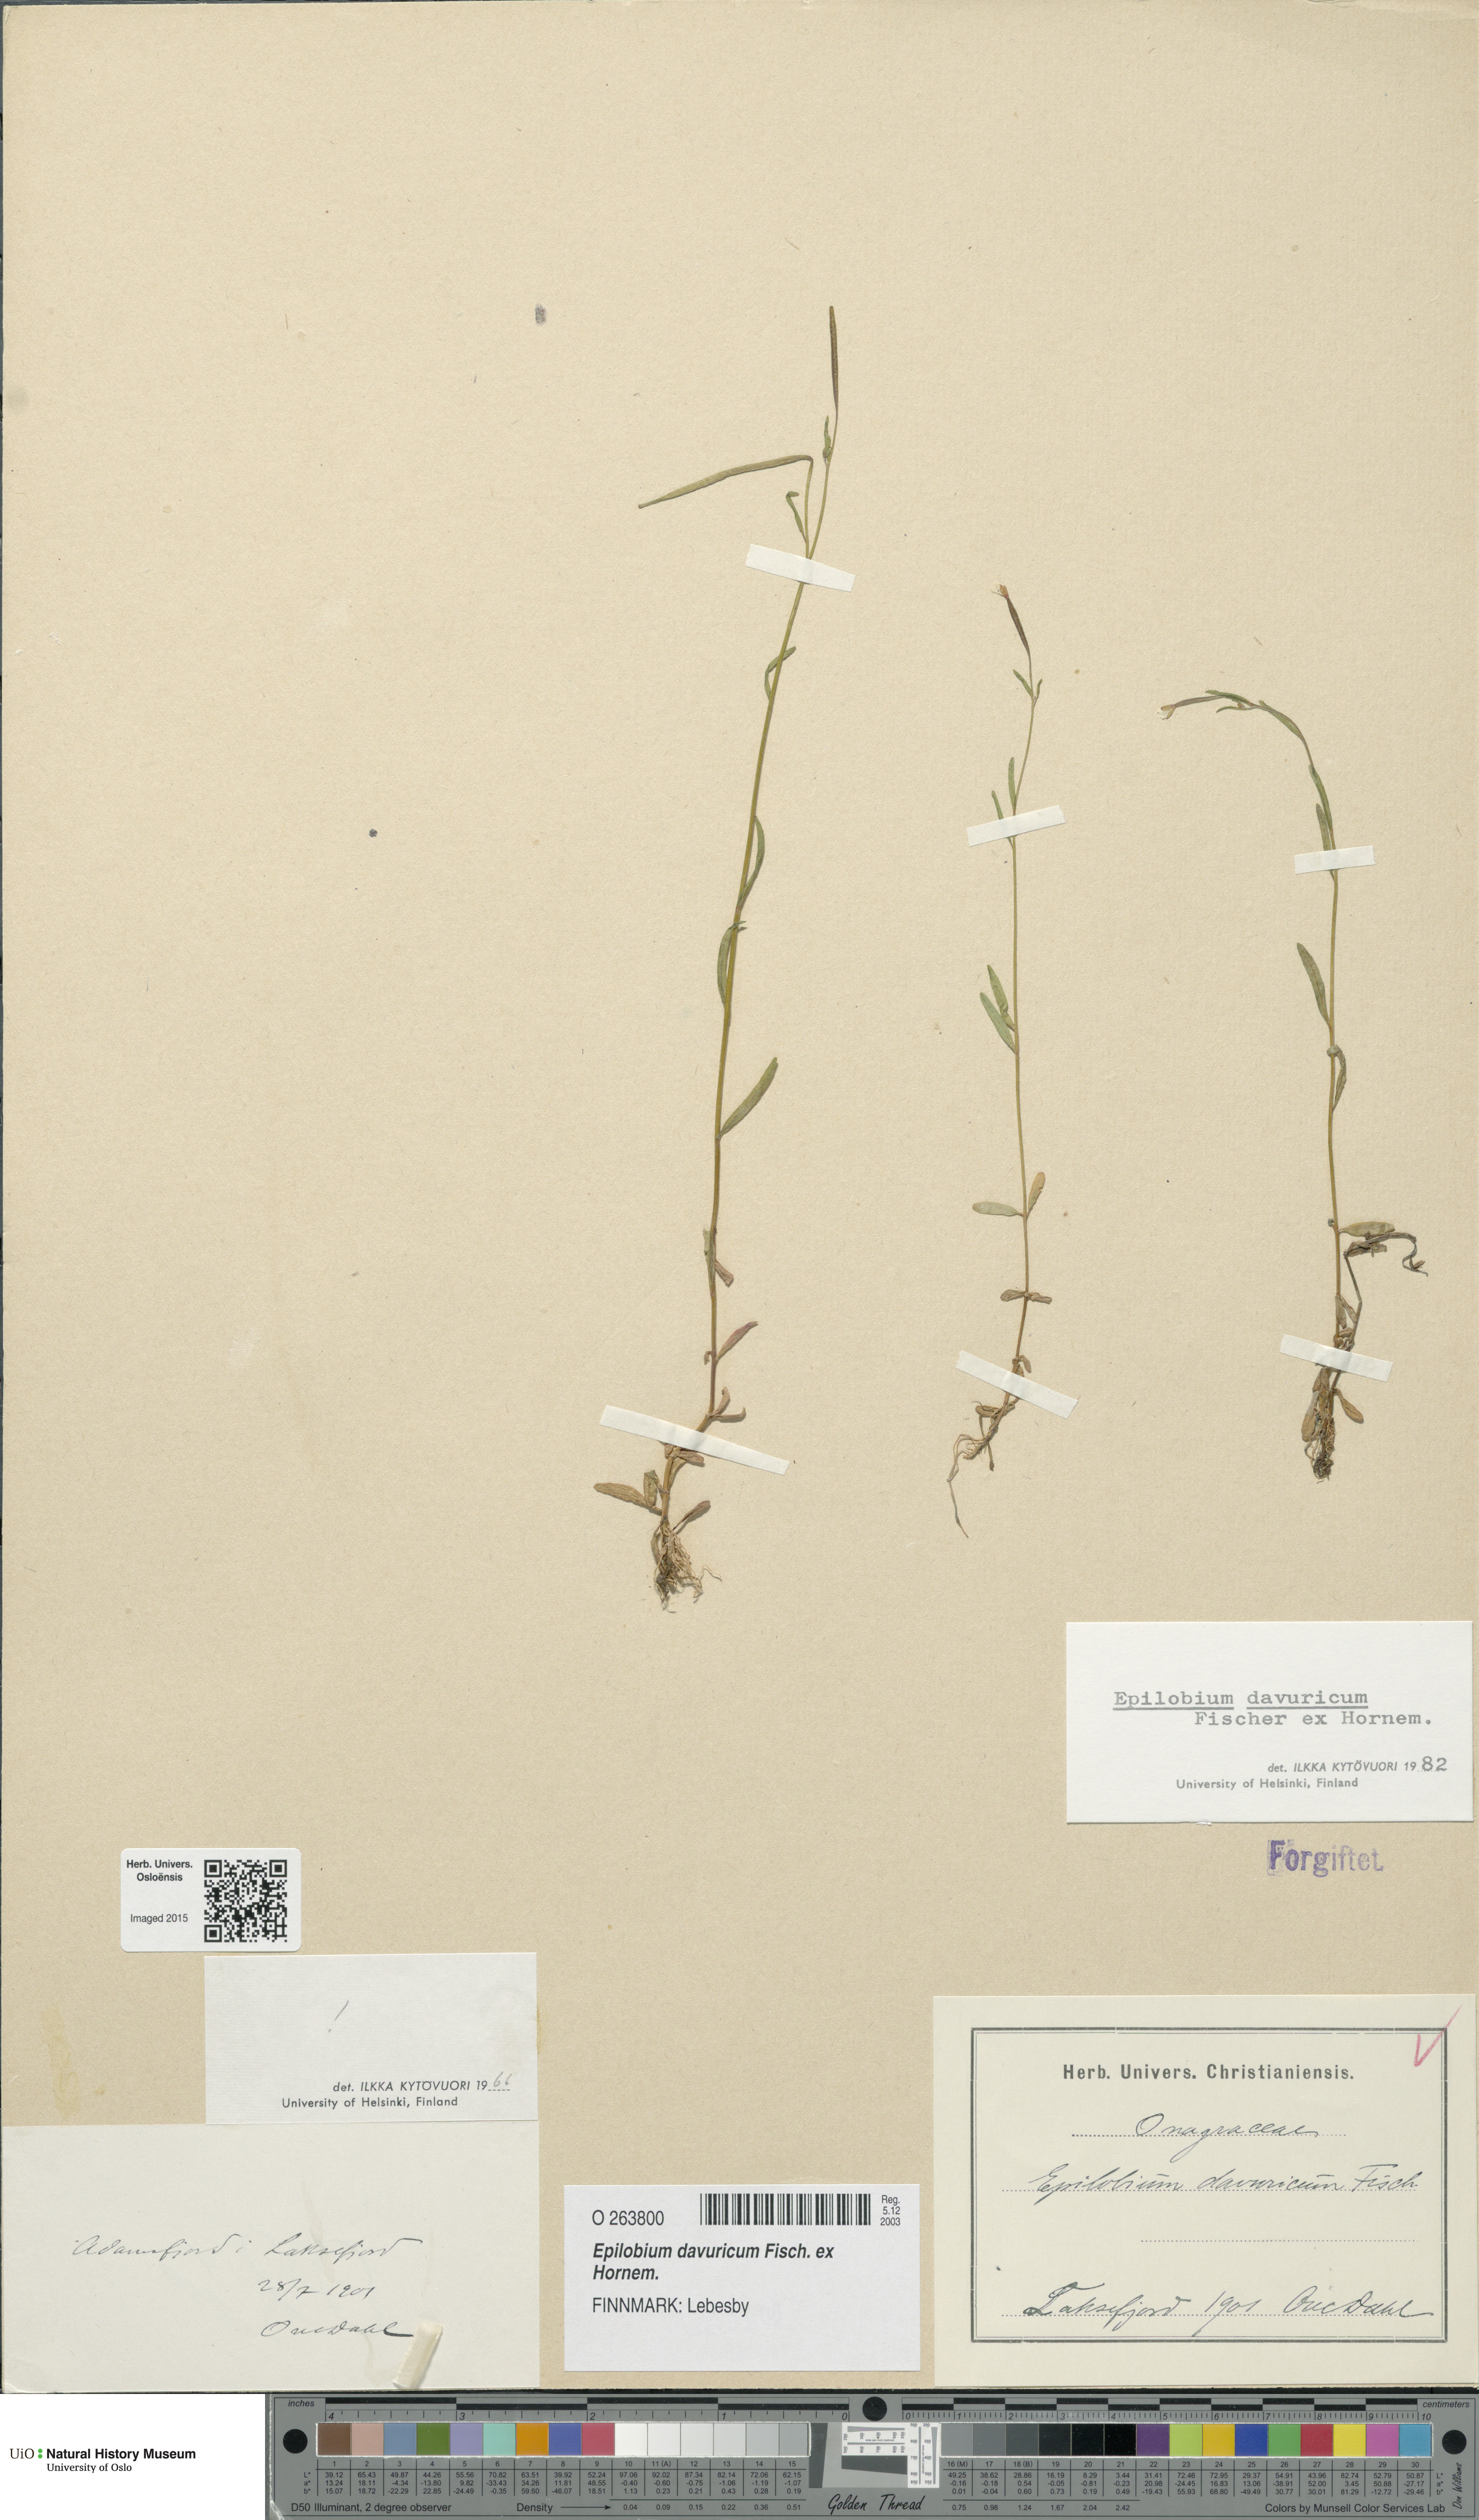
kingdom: Plantae
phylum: Tracheophyta
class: Magnoliopsida
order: Myrtales
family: Onagraceae
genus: Epilobium
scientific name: Epilobium davuricum
